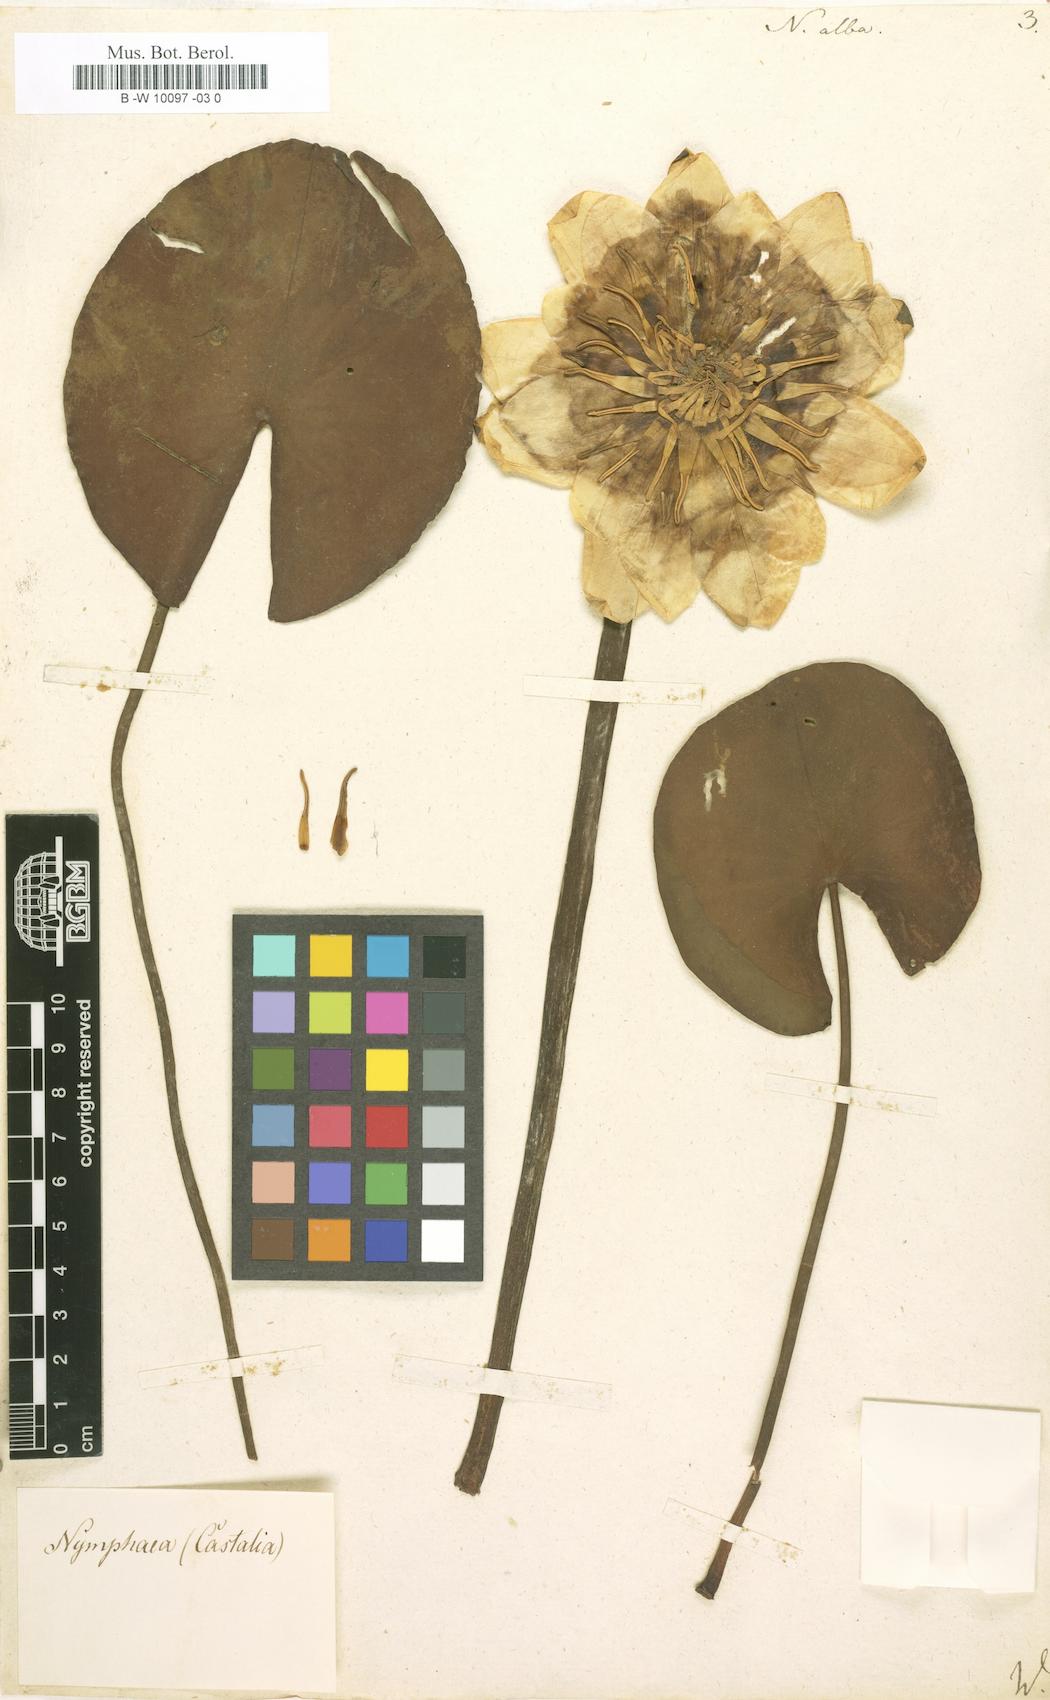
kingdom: Plantae
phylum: Tracheophyta
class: Magnoliopsida
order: Nymphaeales
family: Nymphaeaceae
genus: Nymphaea
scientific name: Nymphaea alba
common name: White water-lily
